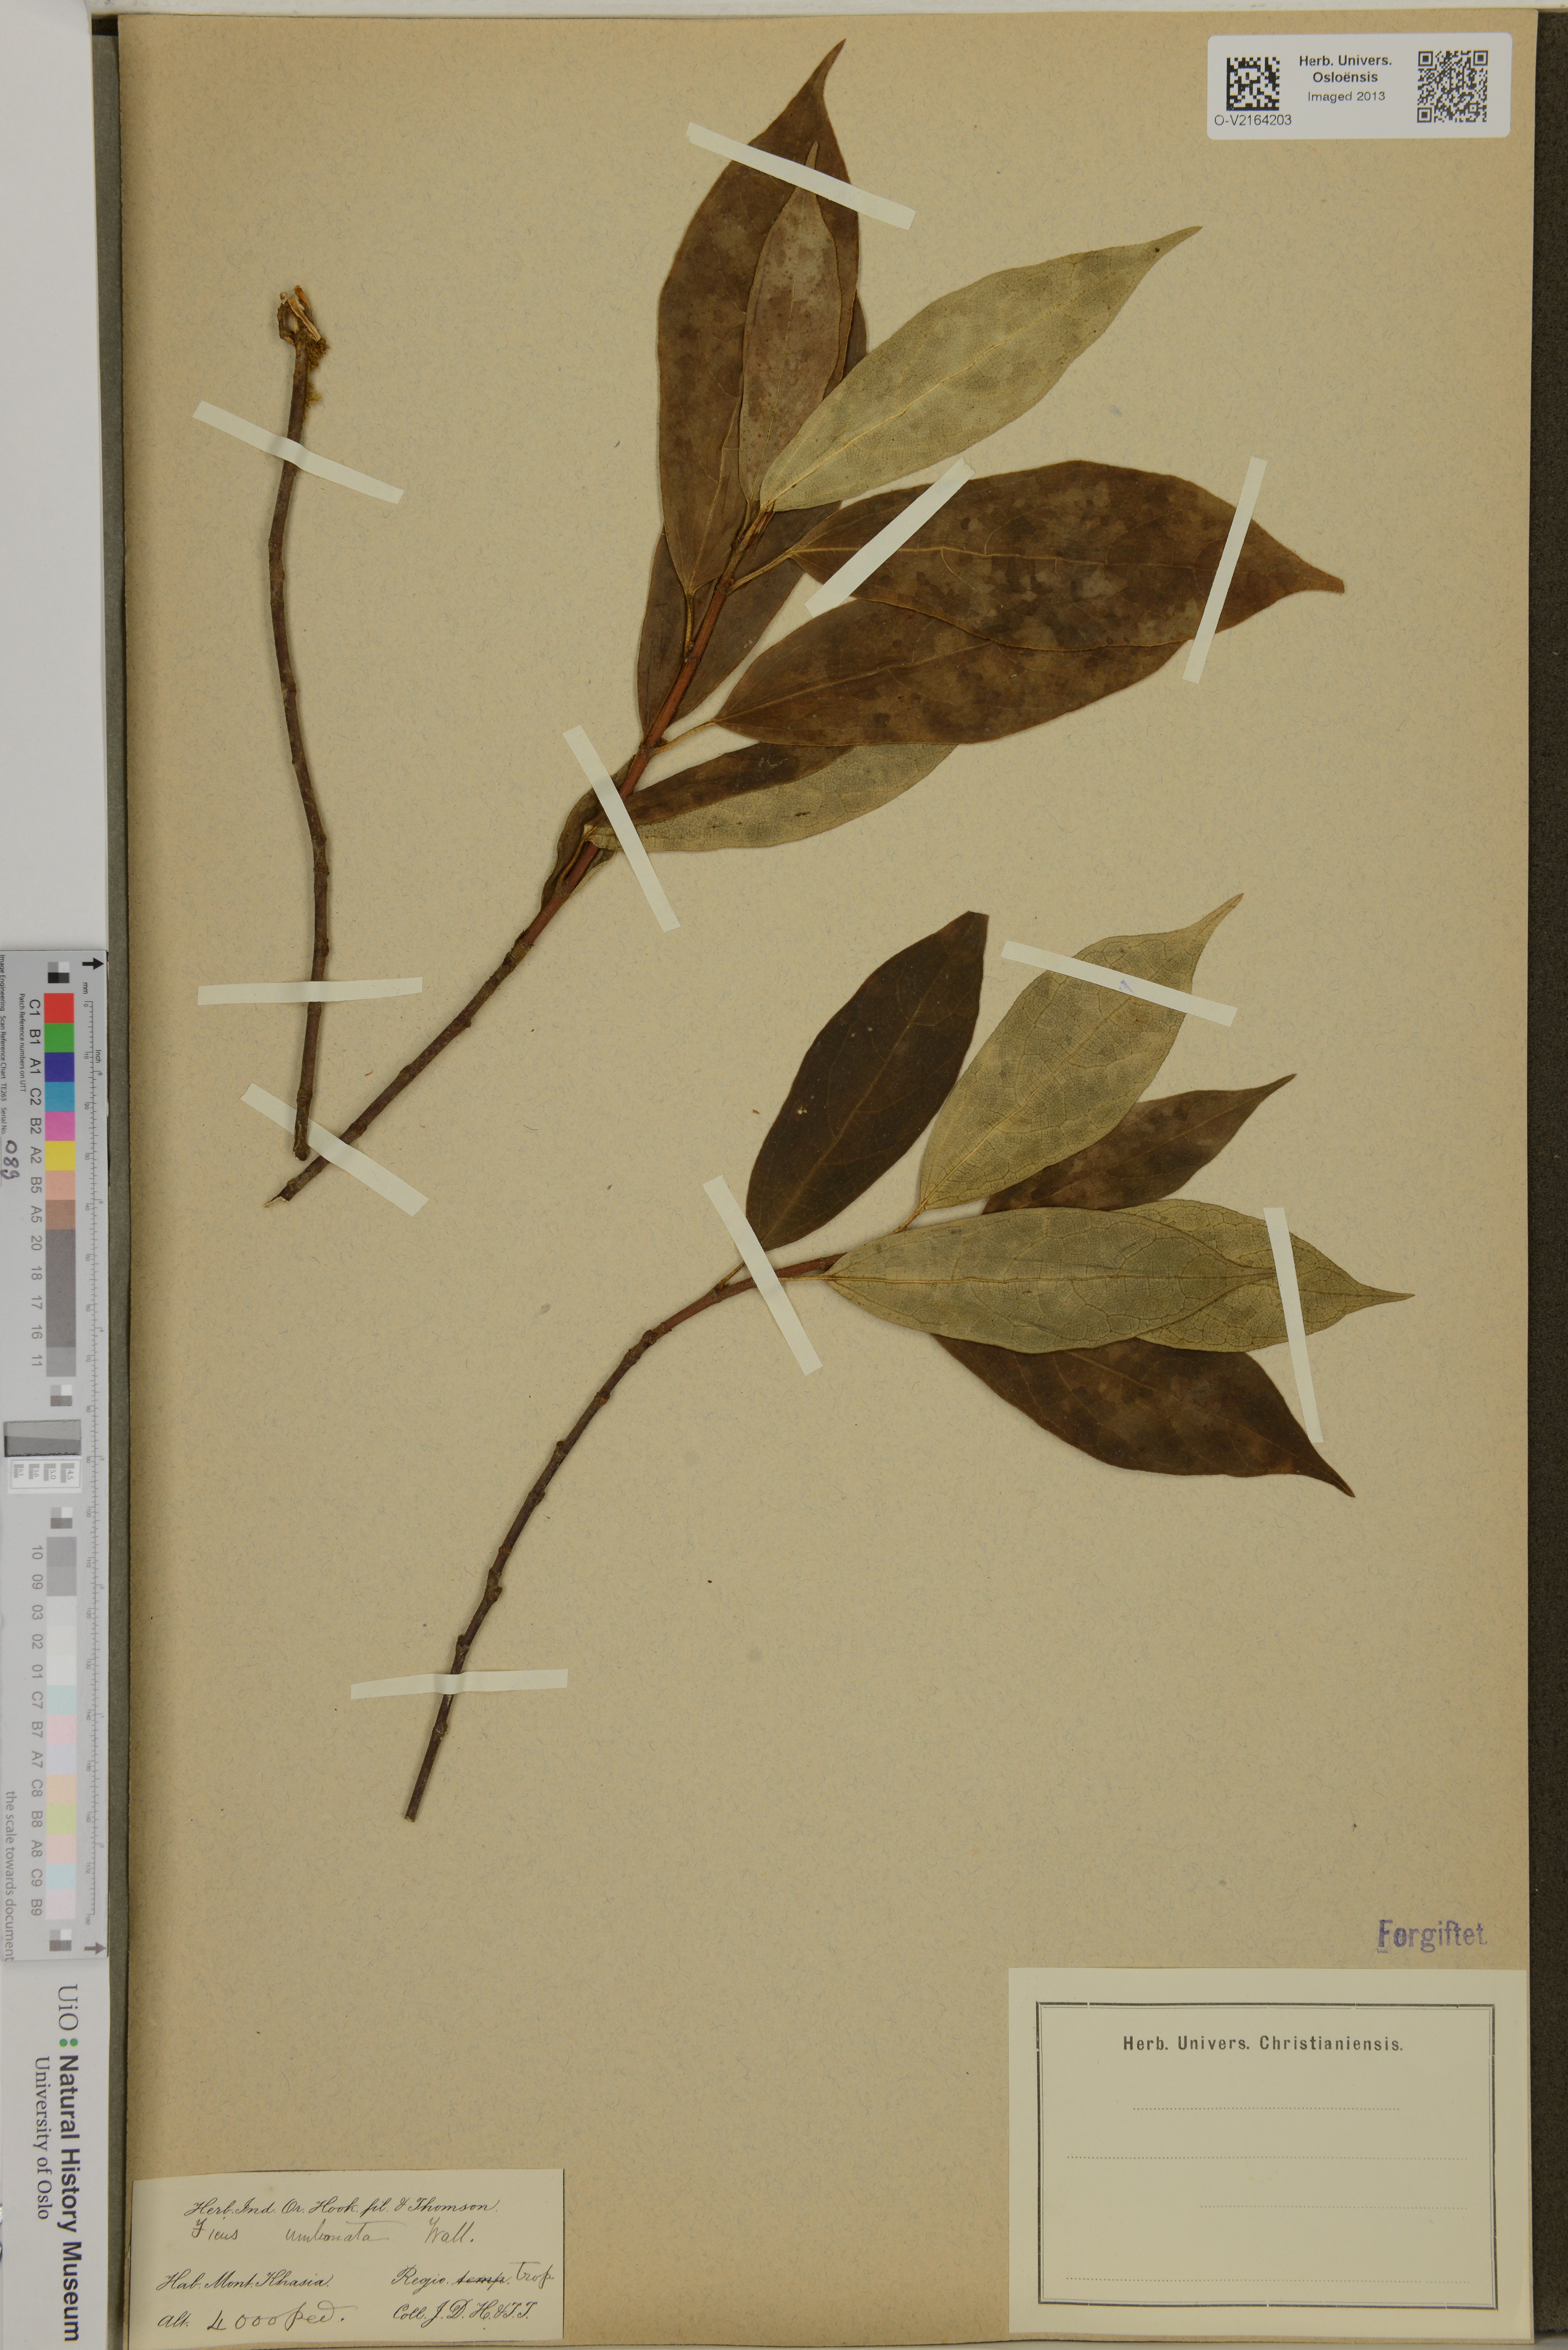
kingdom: Plantae
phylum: Tracheophyta
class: Magnoliopsida
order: Rosales
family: Moraceae
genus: Ficus
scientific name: Ficus umbonata
